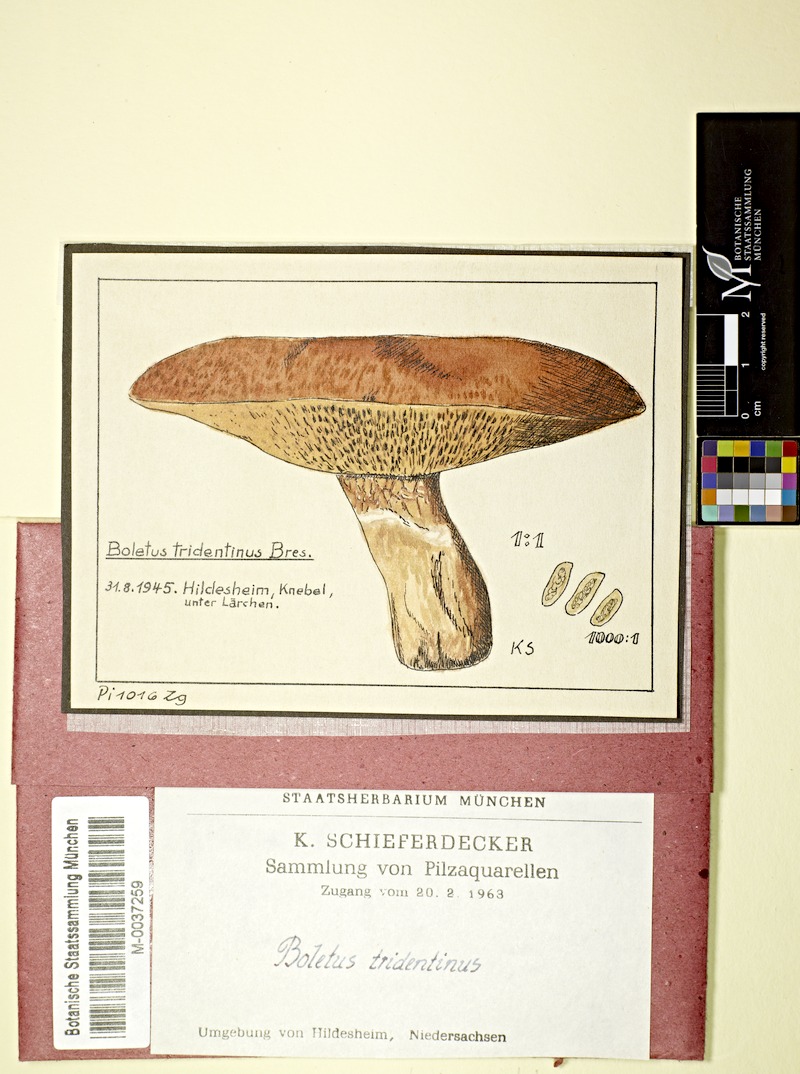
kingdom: Fungi
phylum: Basidiomycota
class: Agaricomycetes
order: Boletales
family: Suillaceae
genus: Suillus
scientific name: Suillus tridentinus
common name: Orange larch bolete
